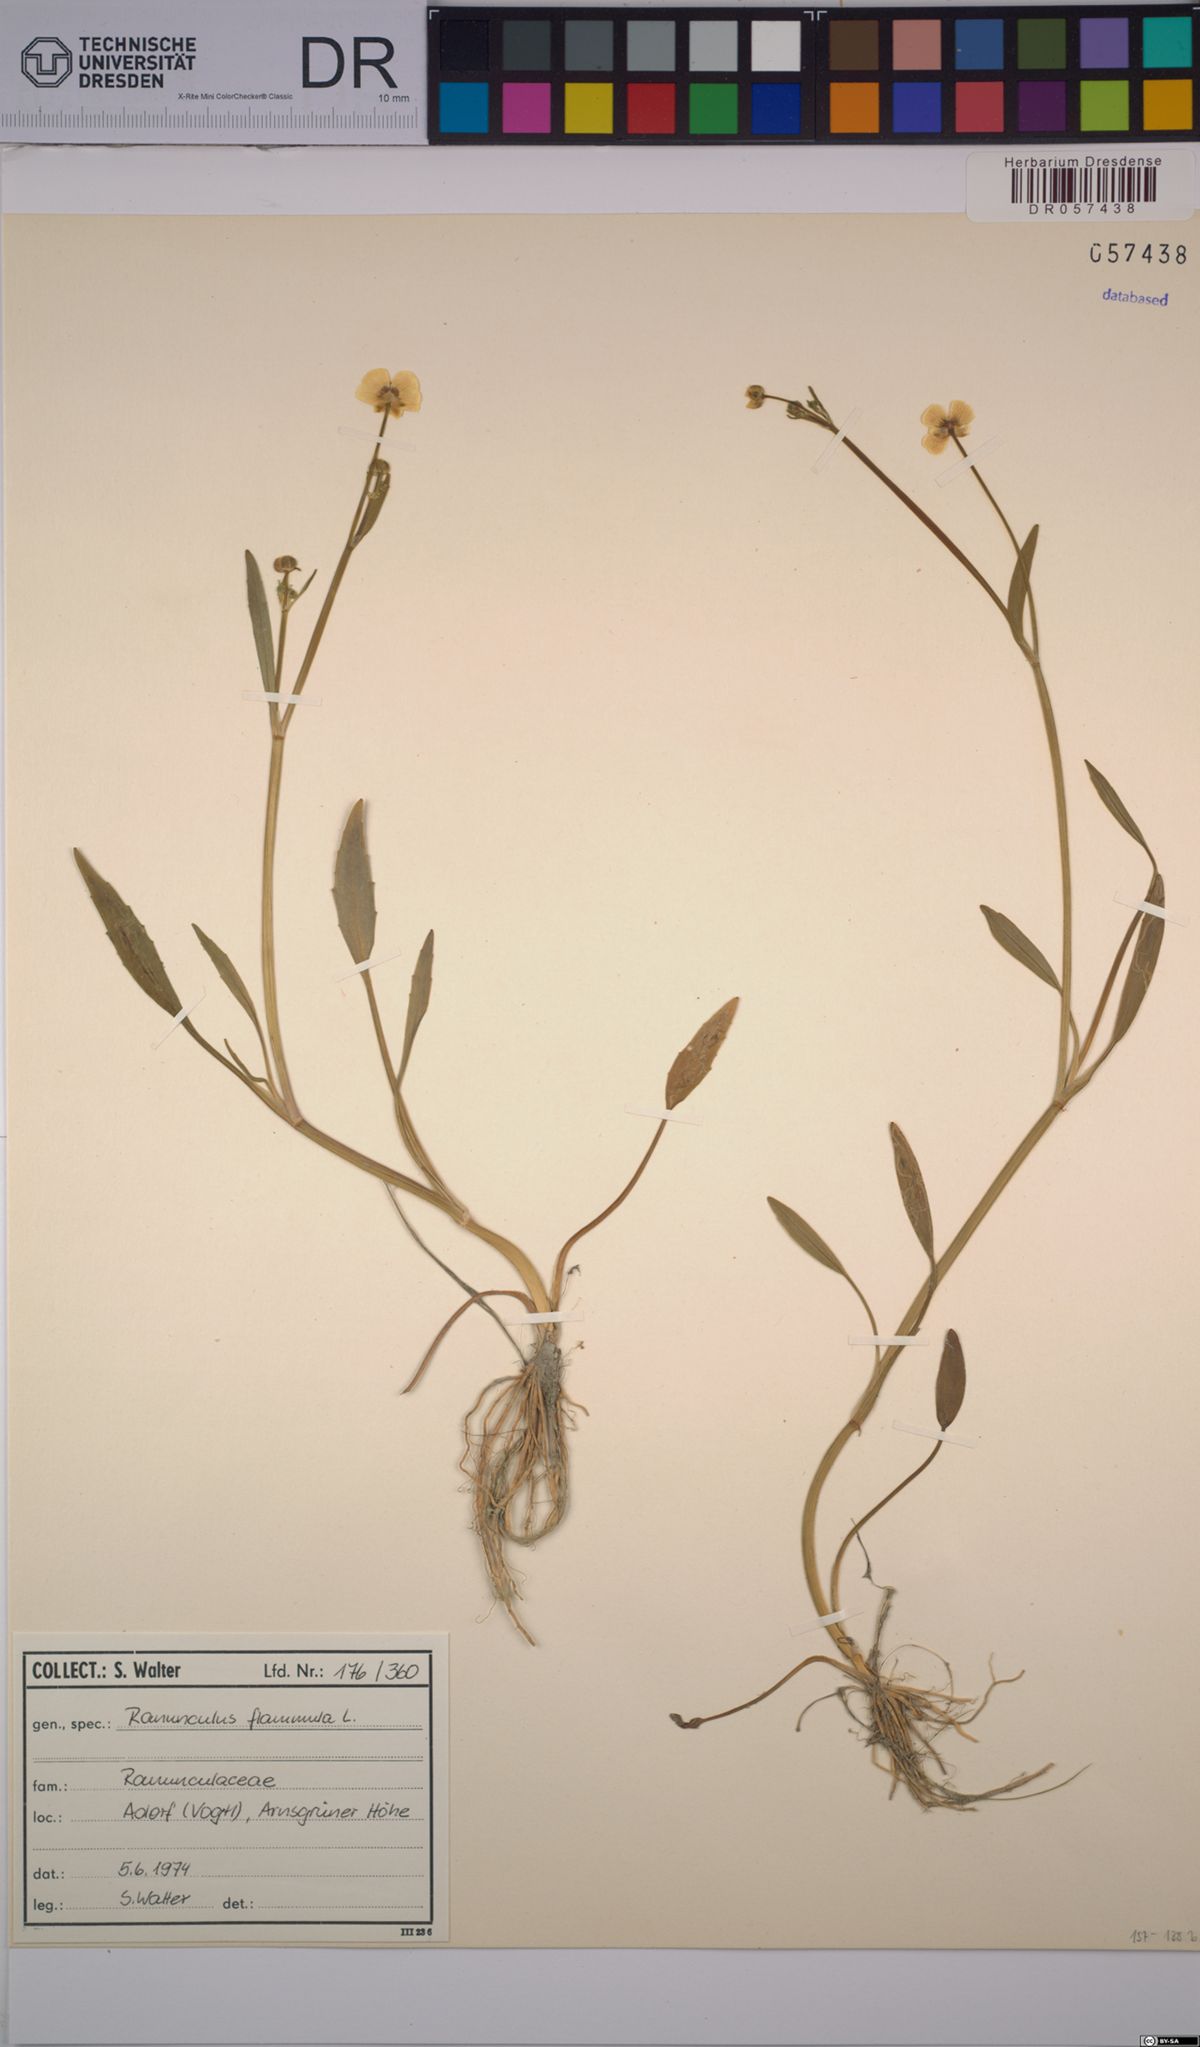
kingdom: Plantae
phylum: Tracheophyta
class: Magnoliopsida
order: Ranunculales
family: Ranunculaceae
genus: Ranunculus
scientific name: Ranunculus flammula
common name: Lesser spearwort
